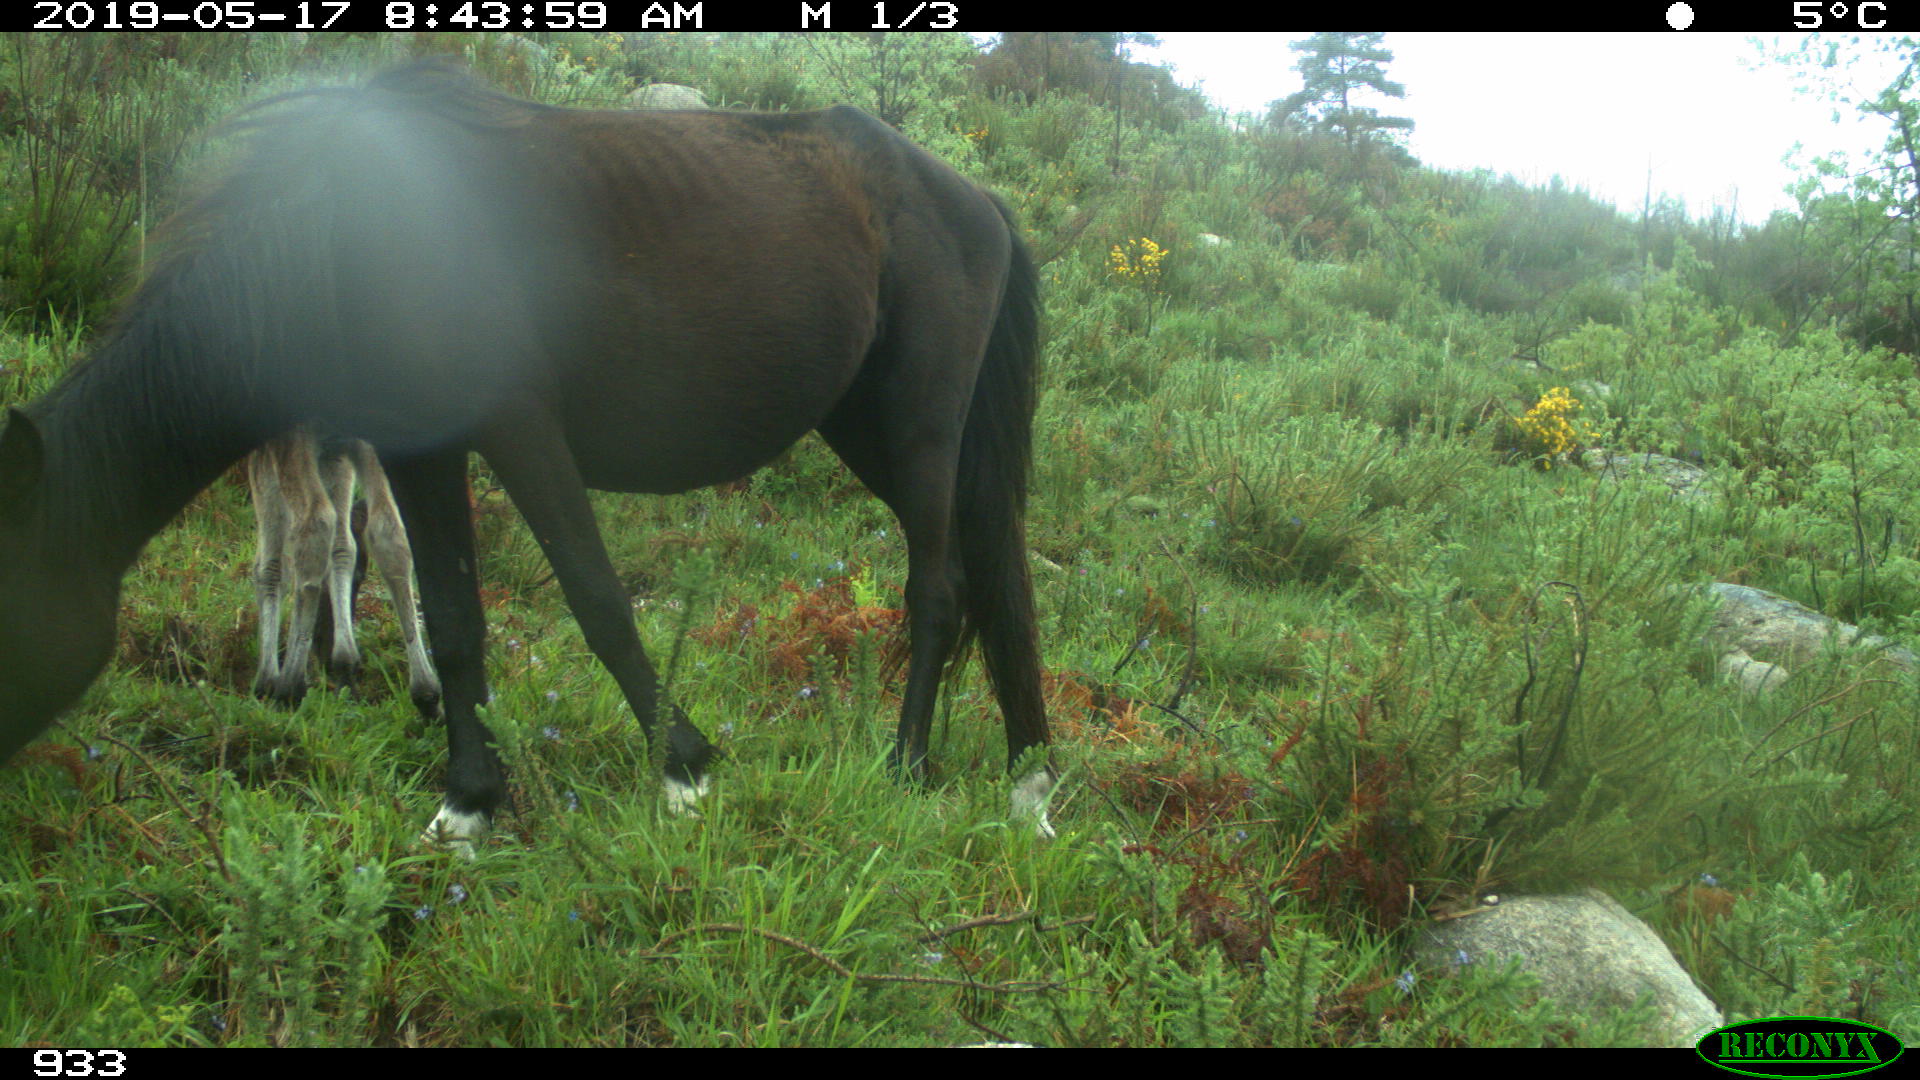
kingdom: Animalia
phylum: Chordata
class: Mammalia
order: Perissodactyla
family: Equidae
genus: Equus
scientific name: Equus caballus
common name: Horse
